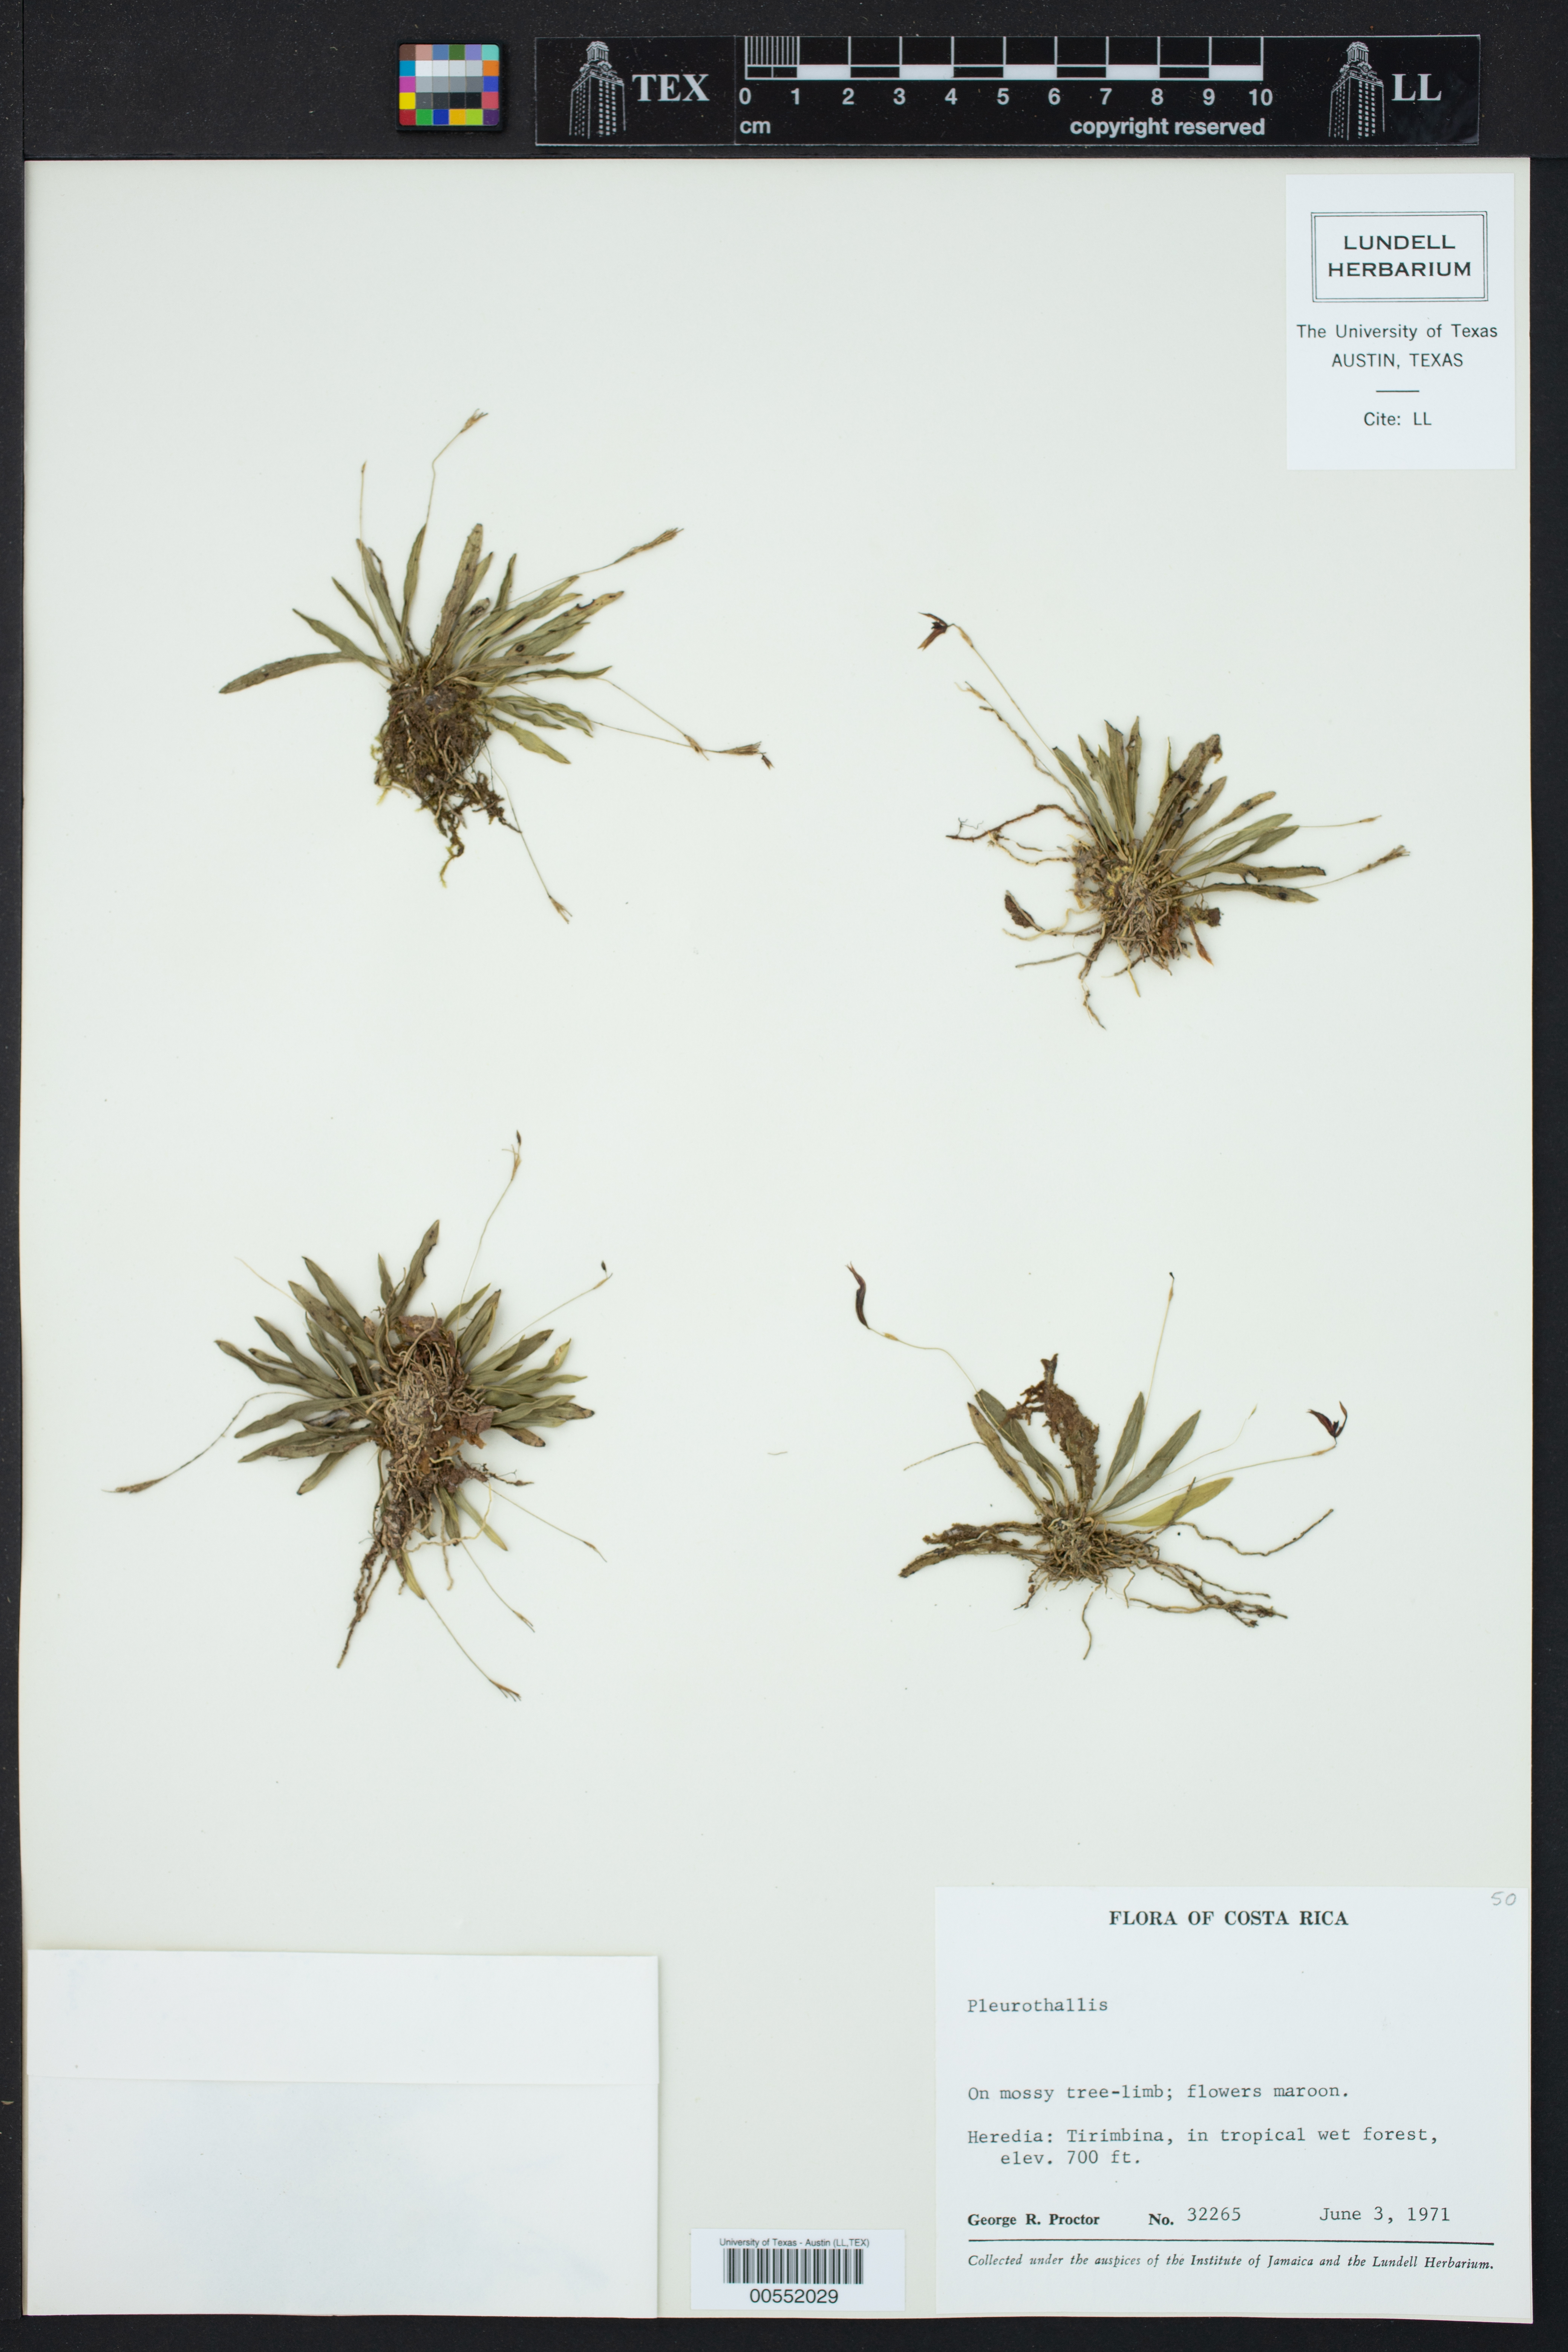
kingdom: Plantae
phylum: Tracheophyta
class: Liliopsida
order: Asparagales
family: Orchidaceae
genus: Pleurothallis
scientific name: Pleurothallis
